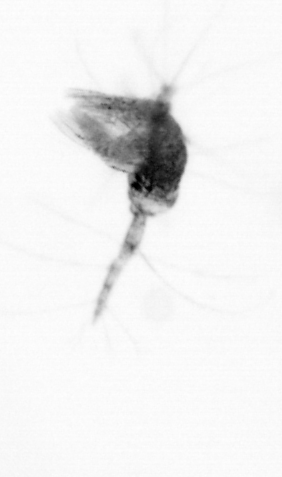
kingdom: Animalia
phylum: Arthropoda
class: Copepoda
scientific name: Copepoda
